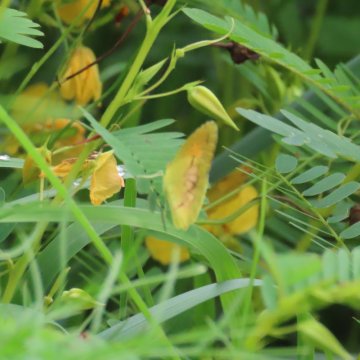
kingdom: Animalia
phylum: Arthropoda
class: Insecta
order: Lepidoptera
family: Pieridae
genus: Abaeis
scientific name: Abaeis nicippe
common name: Sleepy Orange
